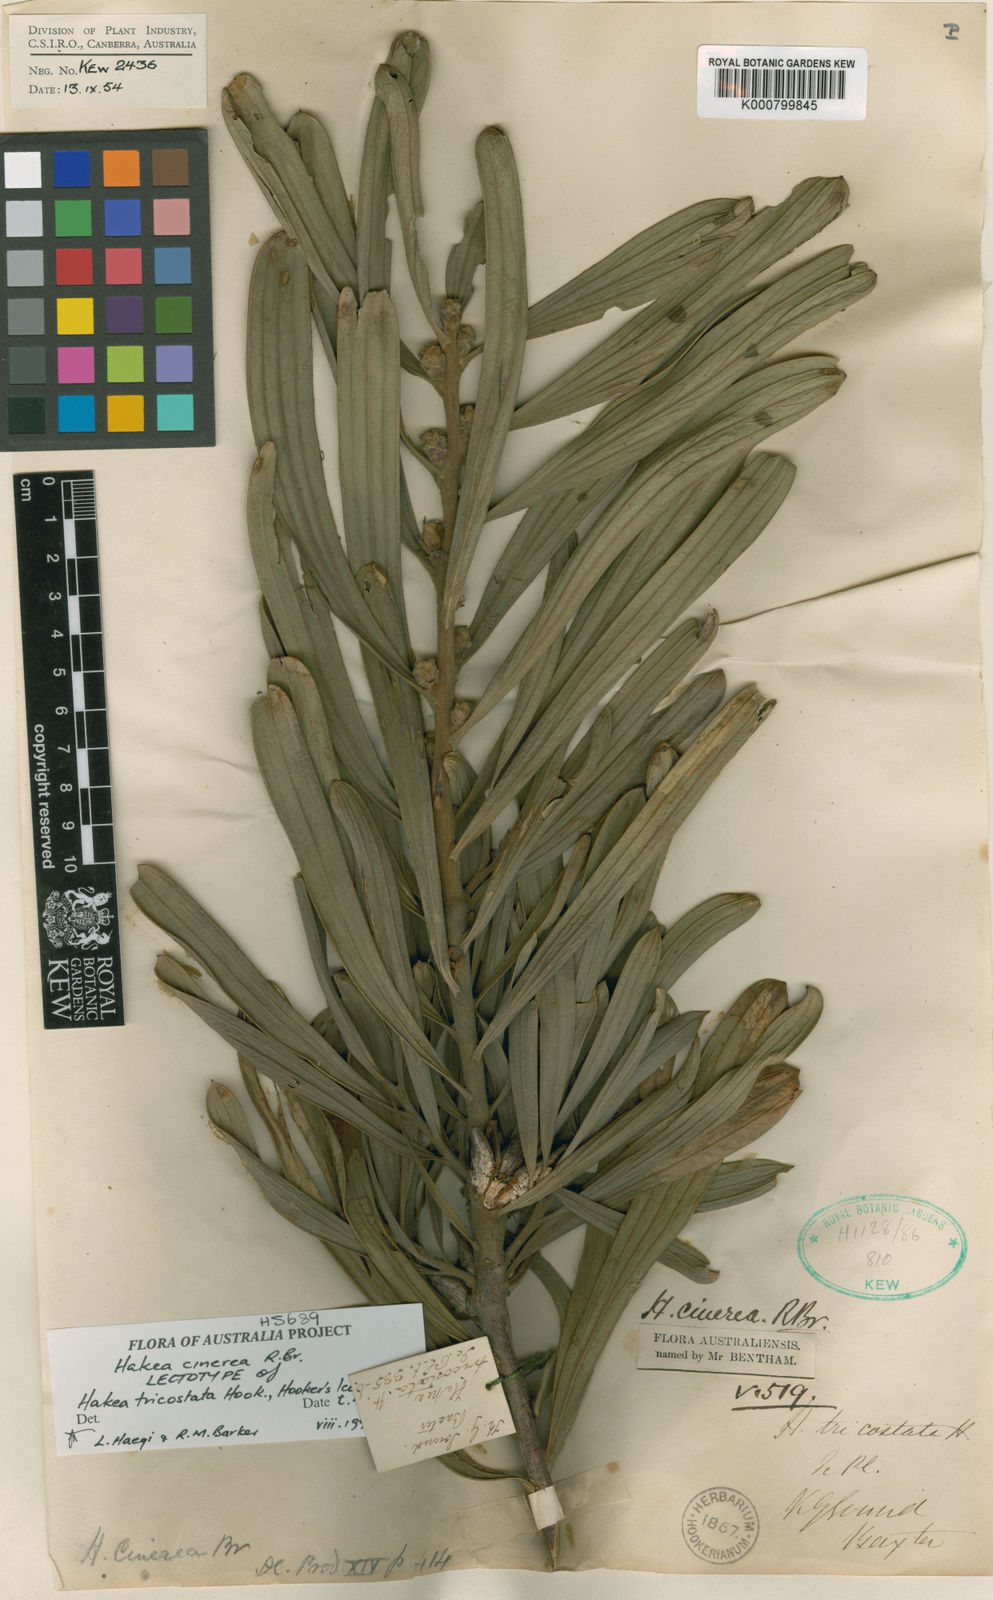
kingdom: Plantae
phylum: Tracheophyta
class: Magnoliopsida
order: Proteales
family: Proteaceae
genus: Hakea
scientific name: Hakea cinerea
